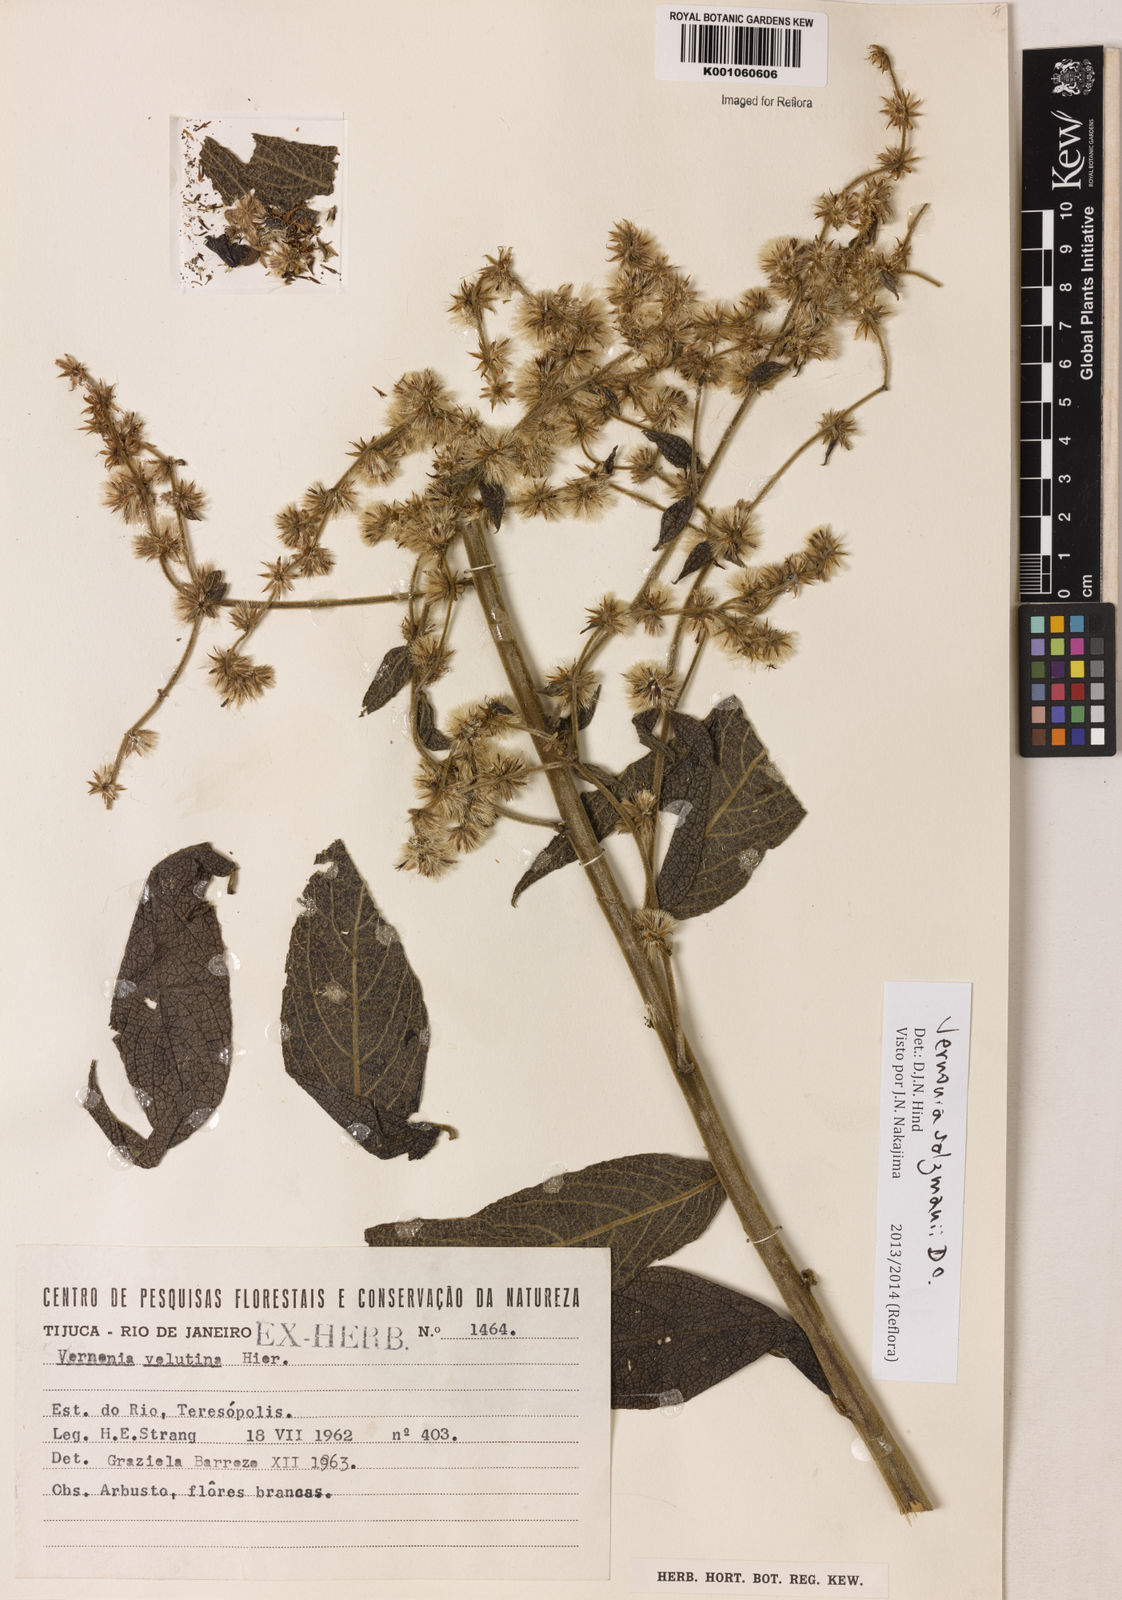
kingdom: Plantae
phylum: Tracheophyta
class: Magnoliopsida
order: Asterales
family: Asteraceae
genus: Lepidaploa
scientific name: Lepidaploa salzmannii
